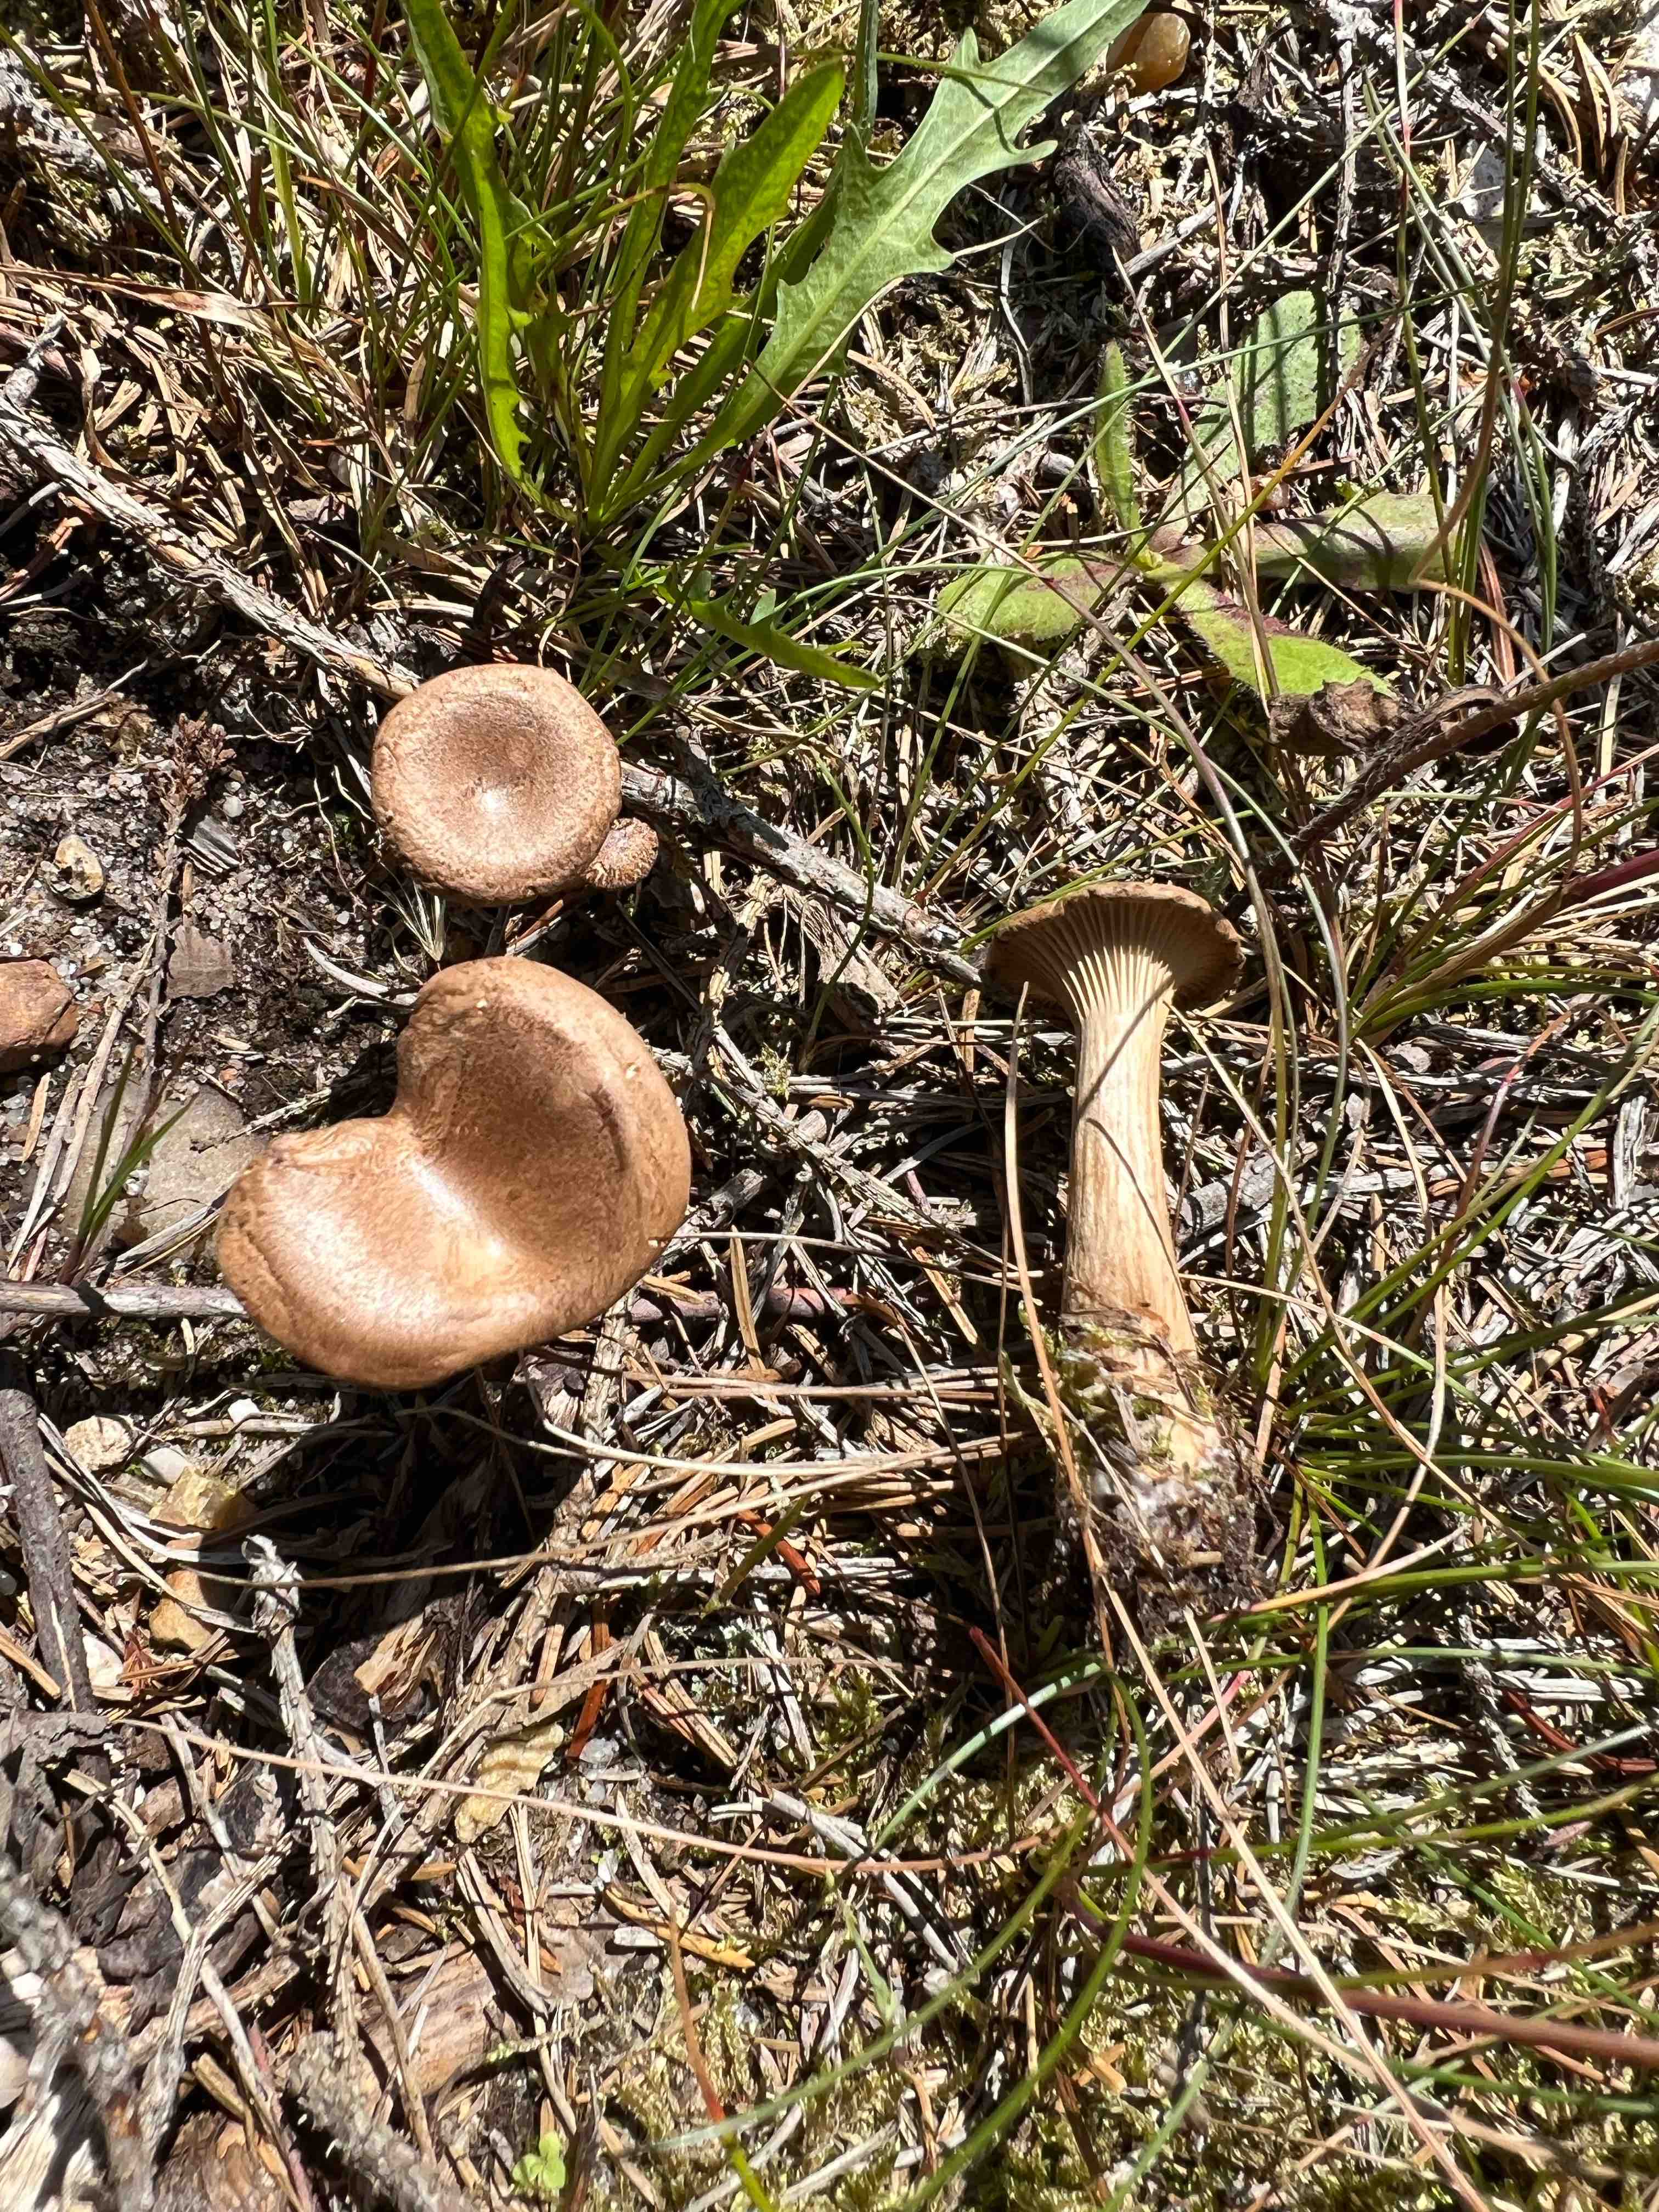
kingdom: Fungi
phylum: Basidiomycota
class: Agaricomycetes
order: Agaricales
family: Tricholomataceae
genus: Infundibulicybe
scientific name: Infundibulicybe squamulosa
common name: småskællet tragthat
